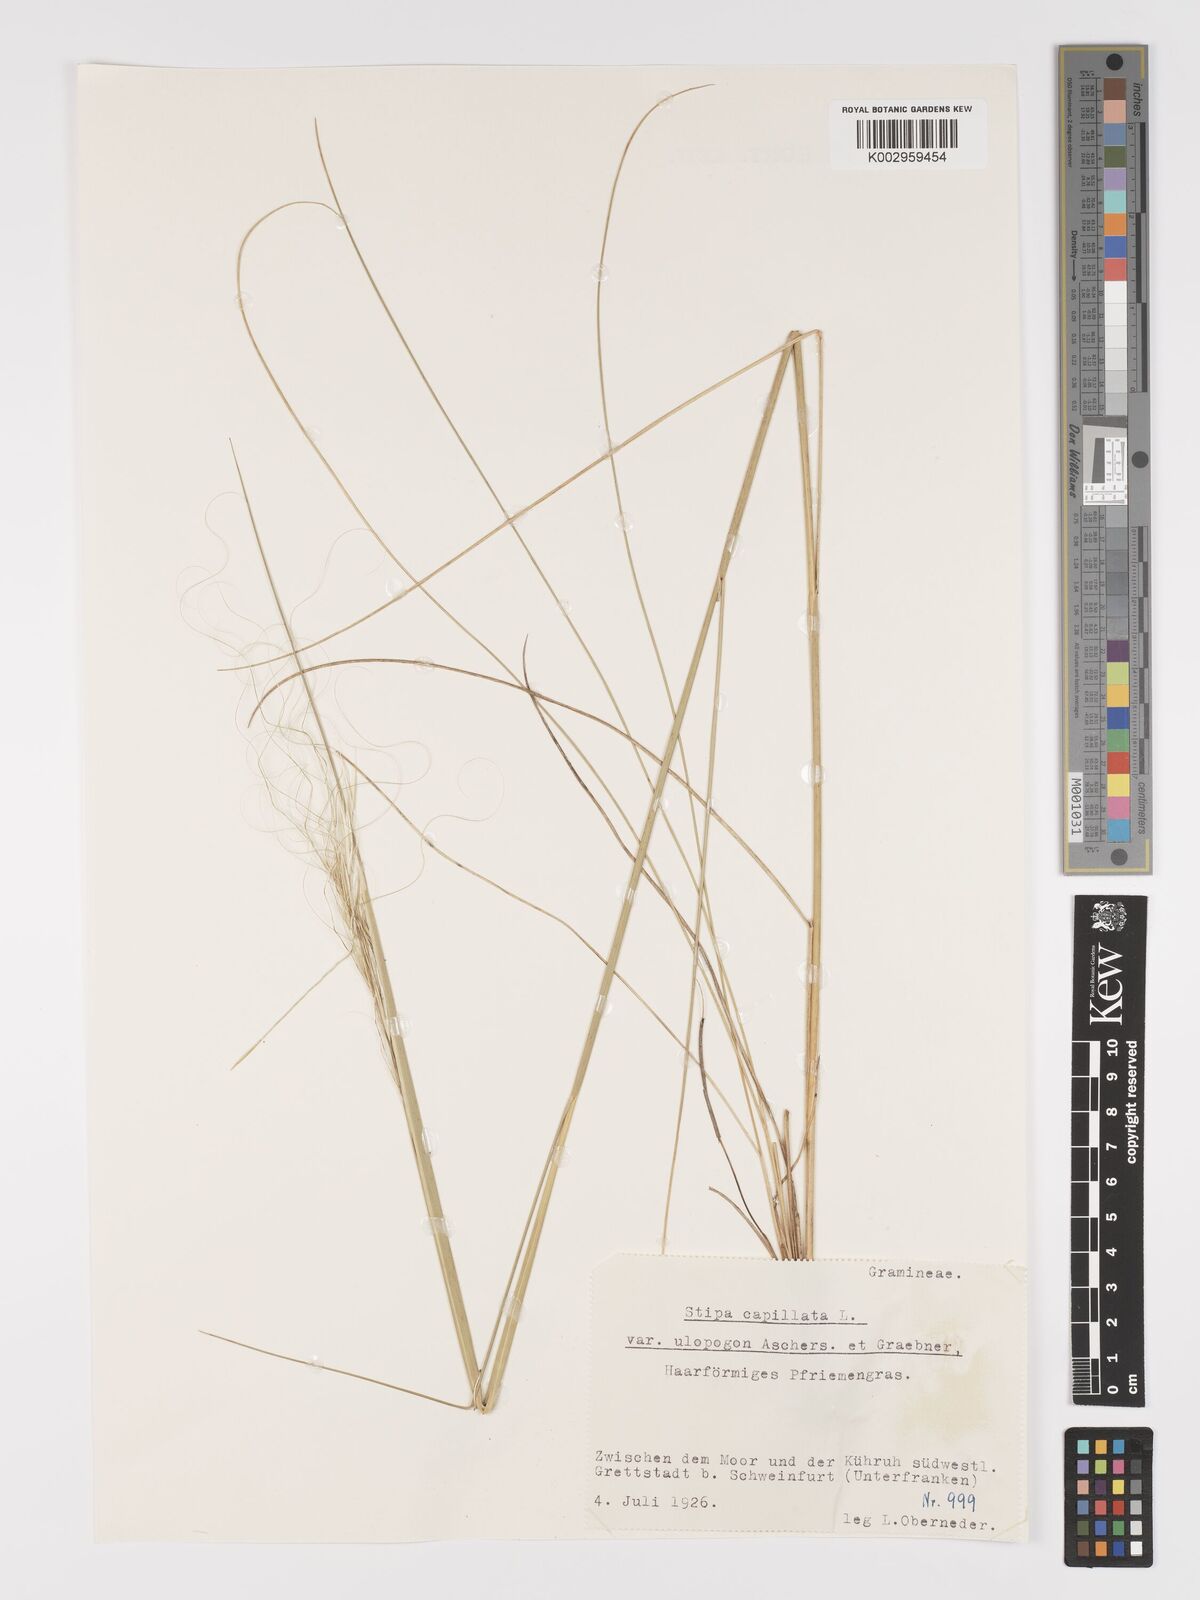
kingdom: Plantae
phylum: Tracheophyta
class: Liliopsida
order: Poales
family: Poaceae
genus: Stipa
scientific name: Stipa capillata
